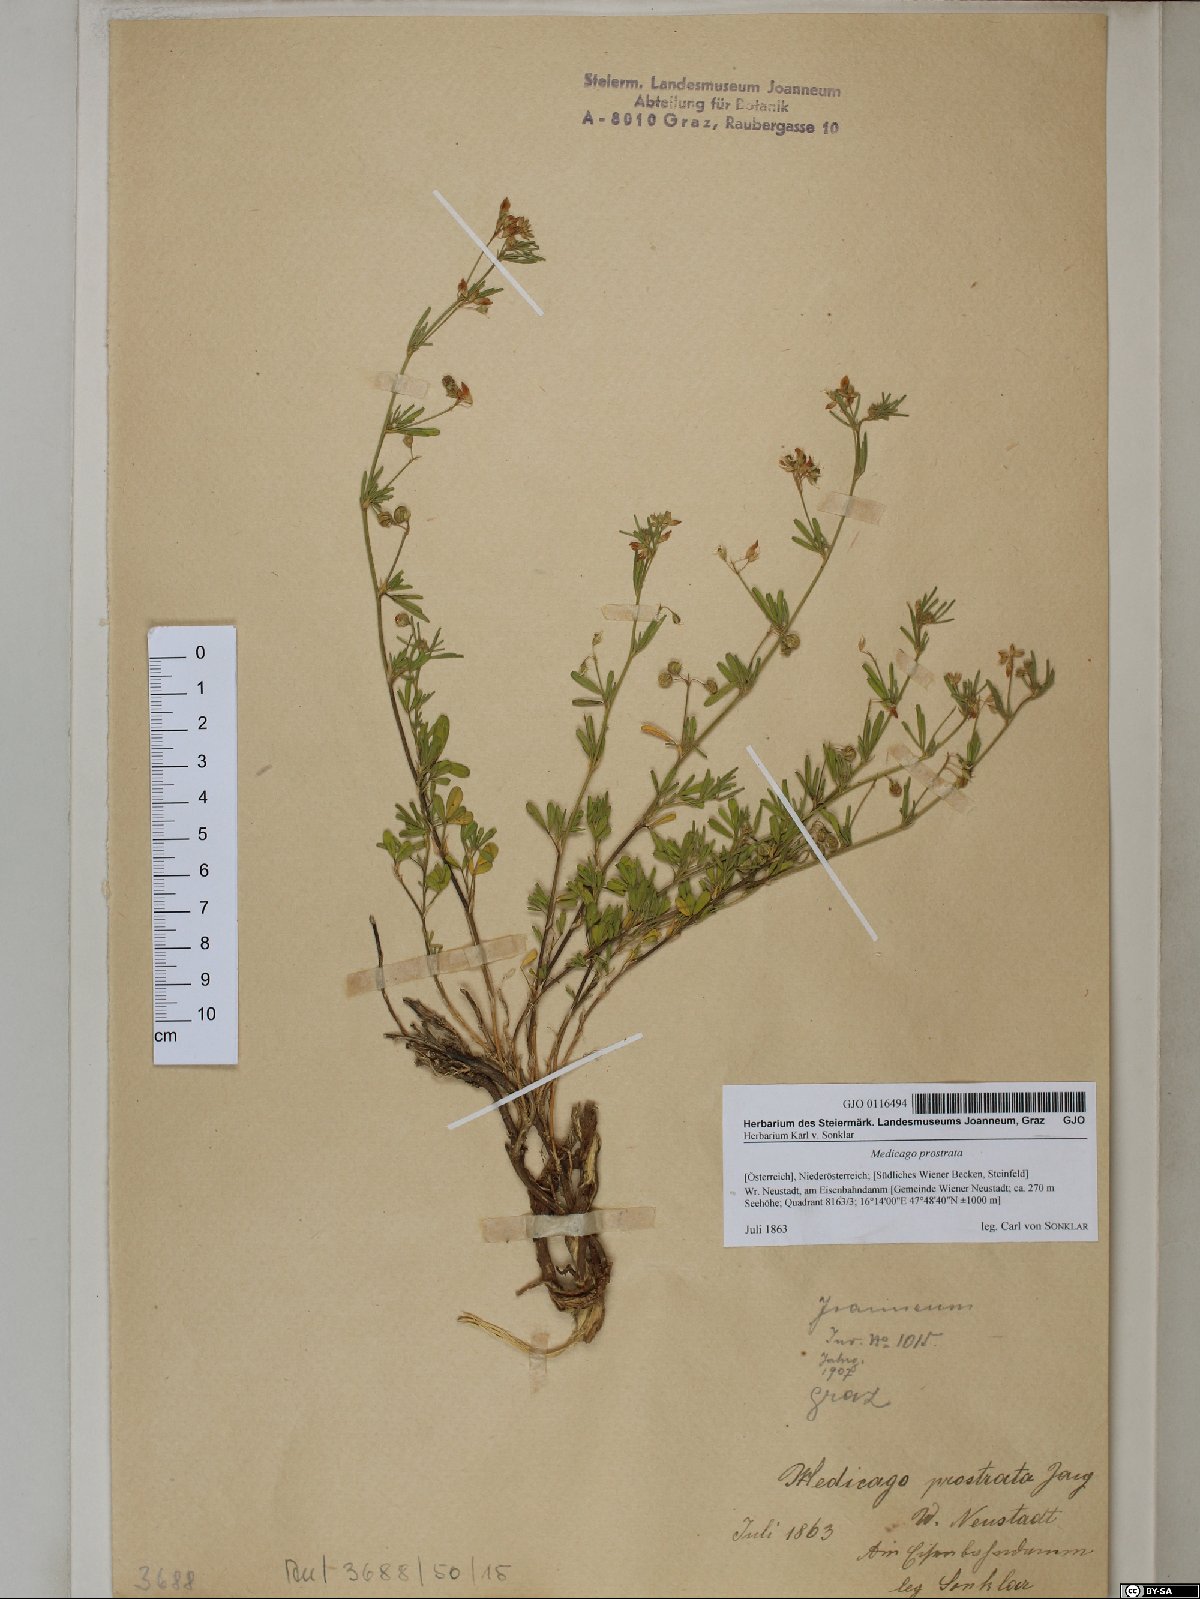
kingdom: Plantae
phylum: Tracheophyta
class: Magnoliopsida
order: Fabales
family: Fabaceae
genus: Medicago
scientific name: Medicago prostrata
